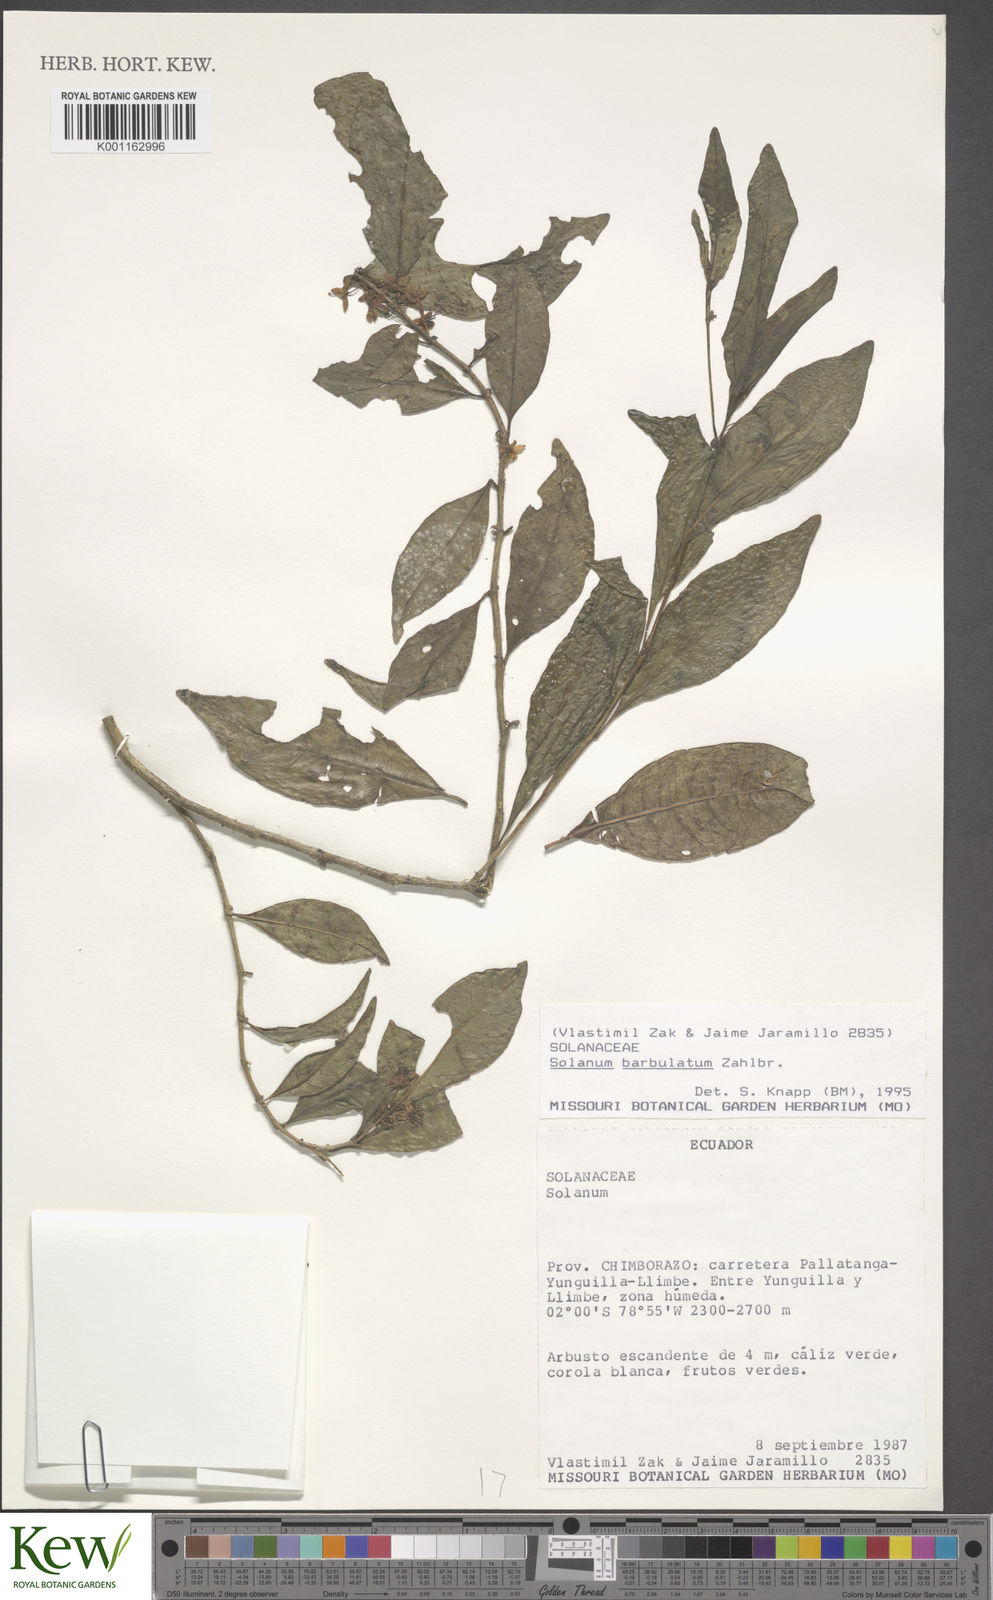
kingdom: Plantae
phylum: Tracheophyta
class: Magnoliopsida
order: Solanales
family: Solanaceae
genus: Solanum
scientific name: Solanum barbulatum
